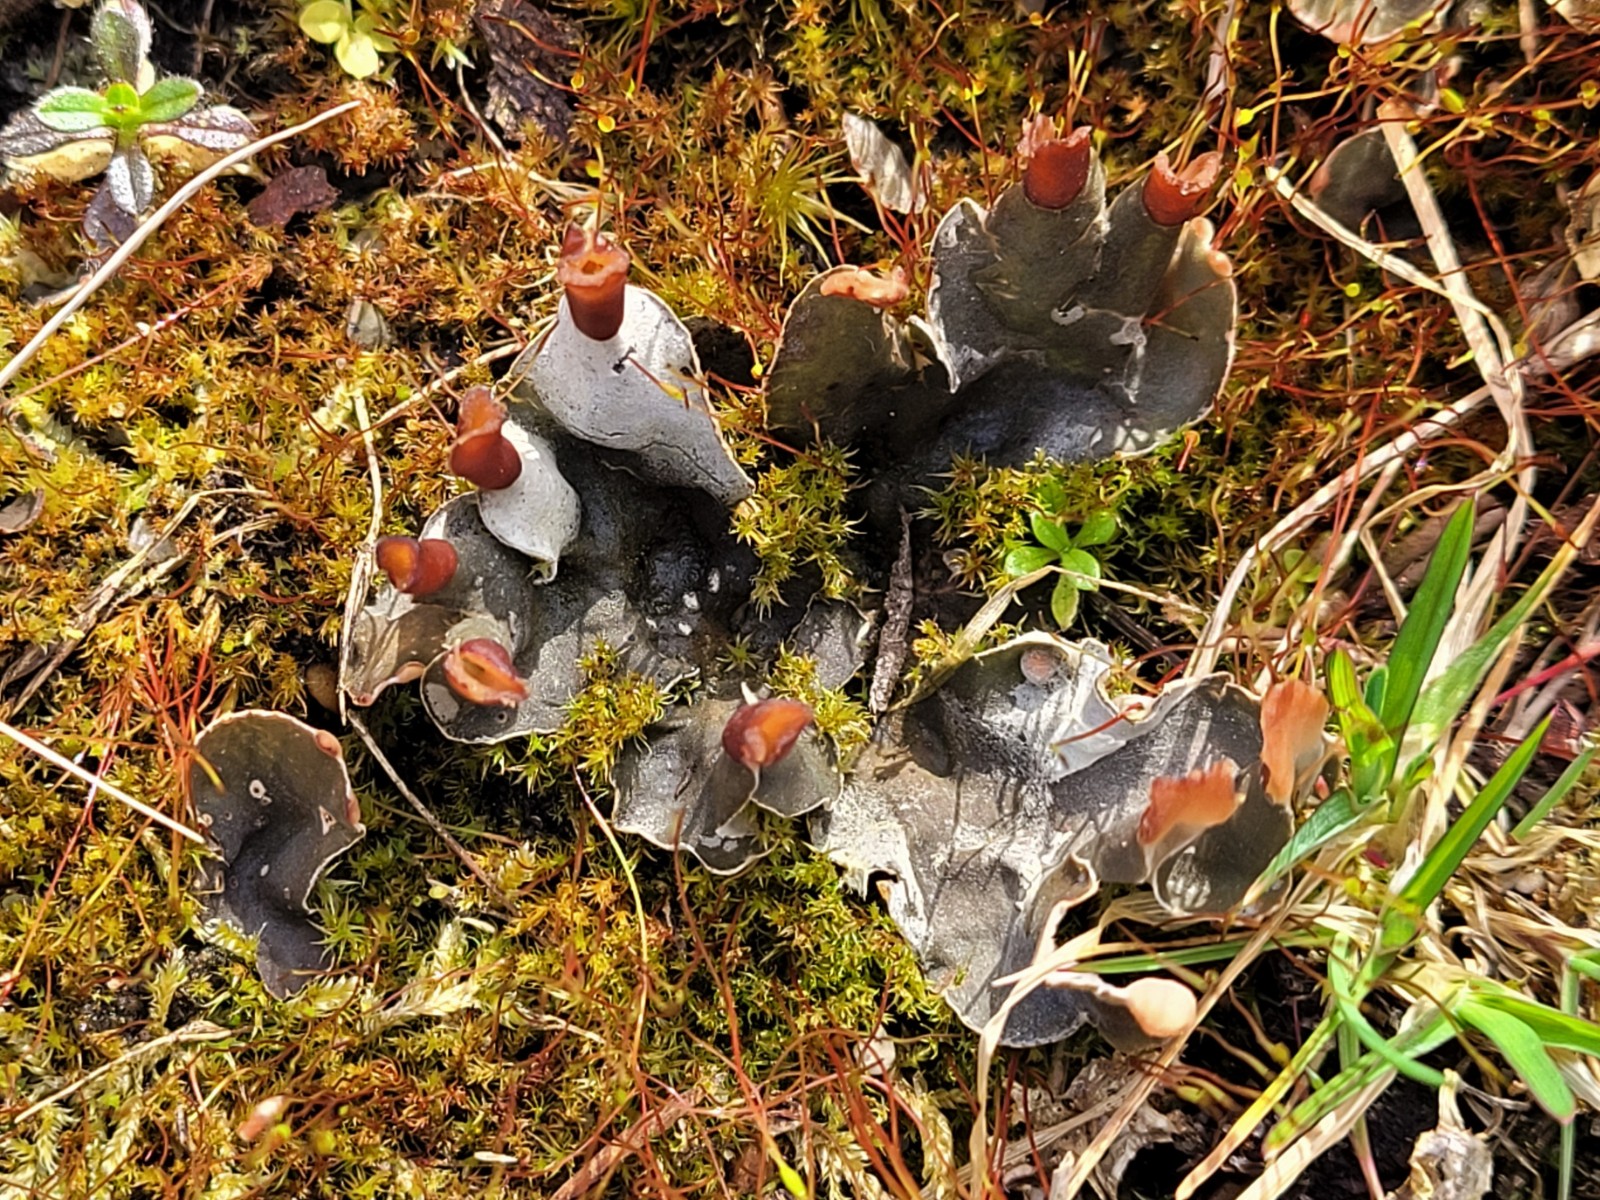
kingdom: Fungi
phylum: Ascomycota
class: Lecanoromycetes
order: Peltigerales
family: Peltigeraceae
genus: Peltigera
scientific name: Peltigera didactyla
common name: liden skjoldlav
